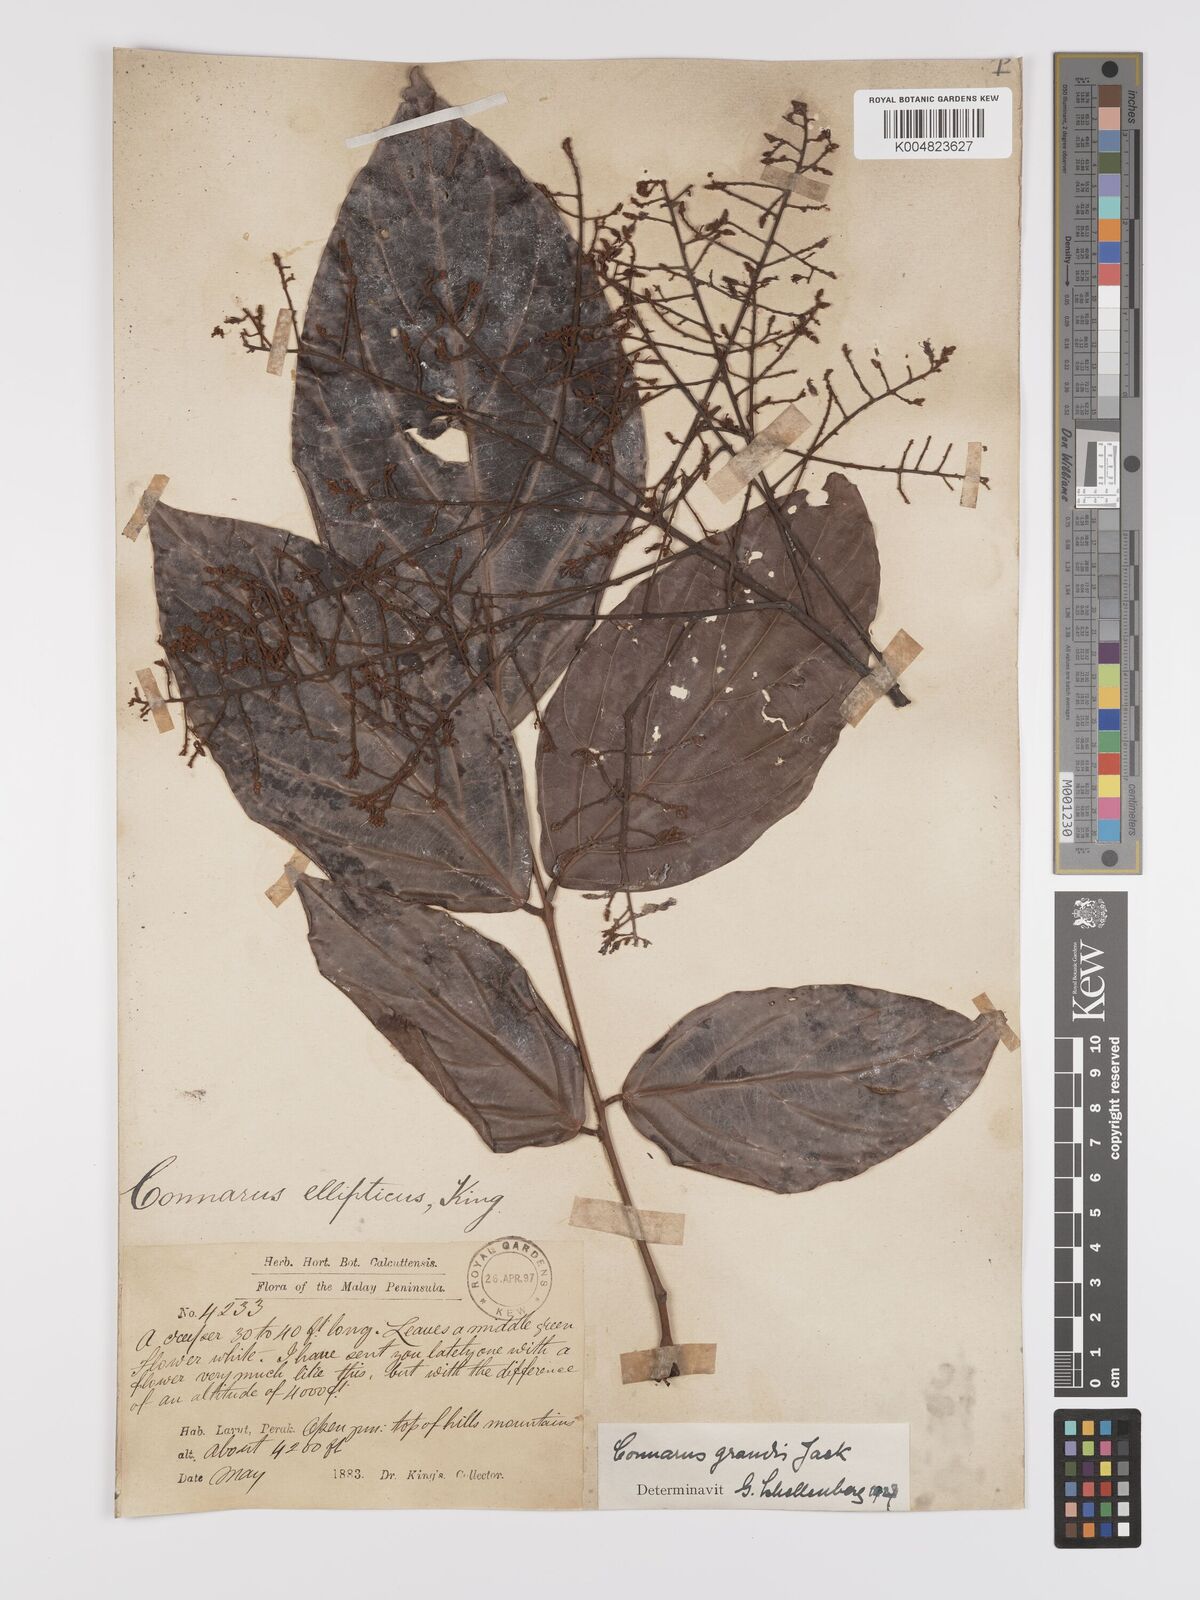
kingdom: Plantae
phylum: Tracheophyta
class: Magnoliopsida
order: Oxalidales
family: Connaraceae
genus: Connarus
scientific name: Connarus grandis
